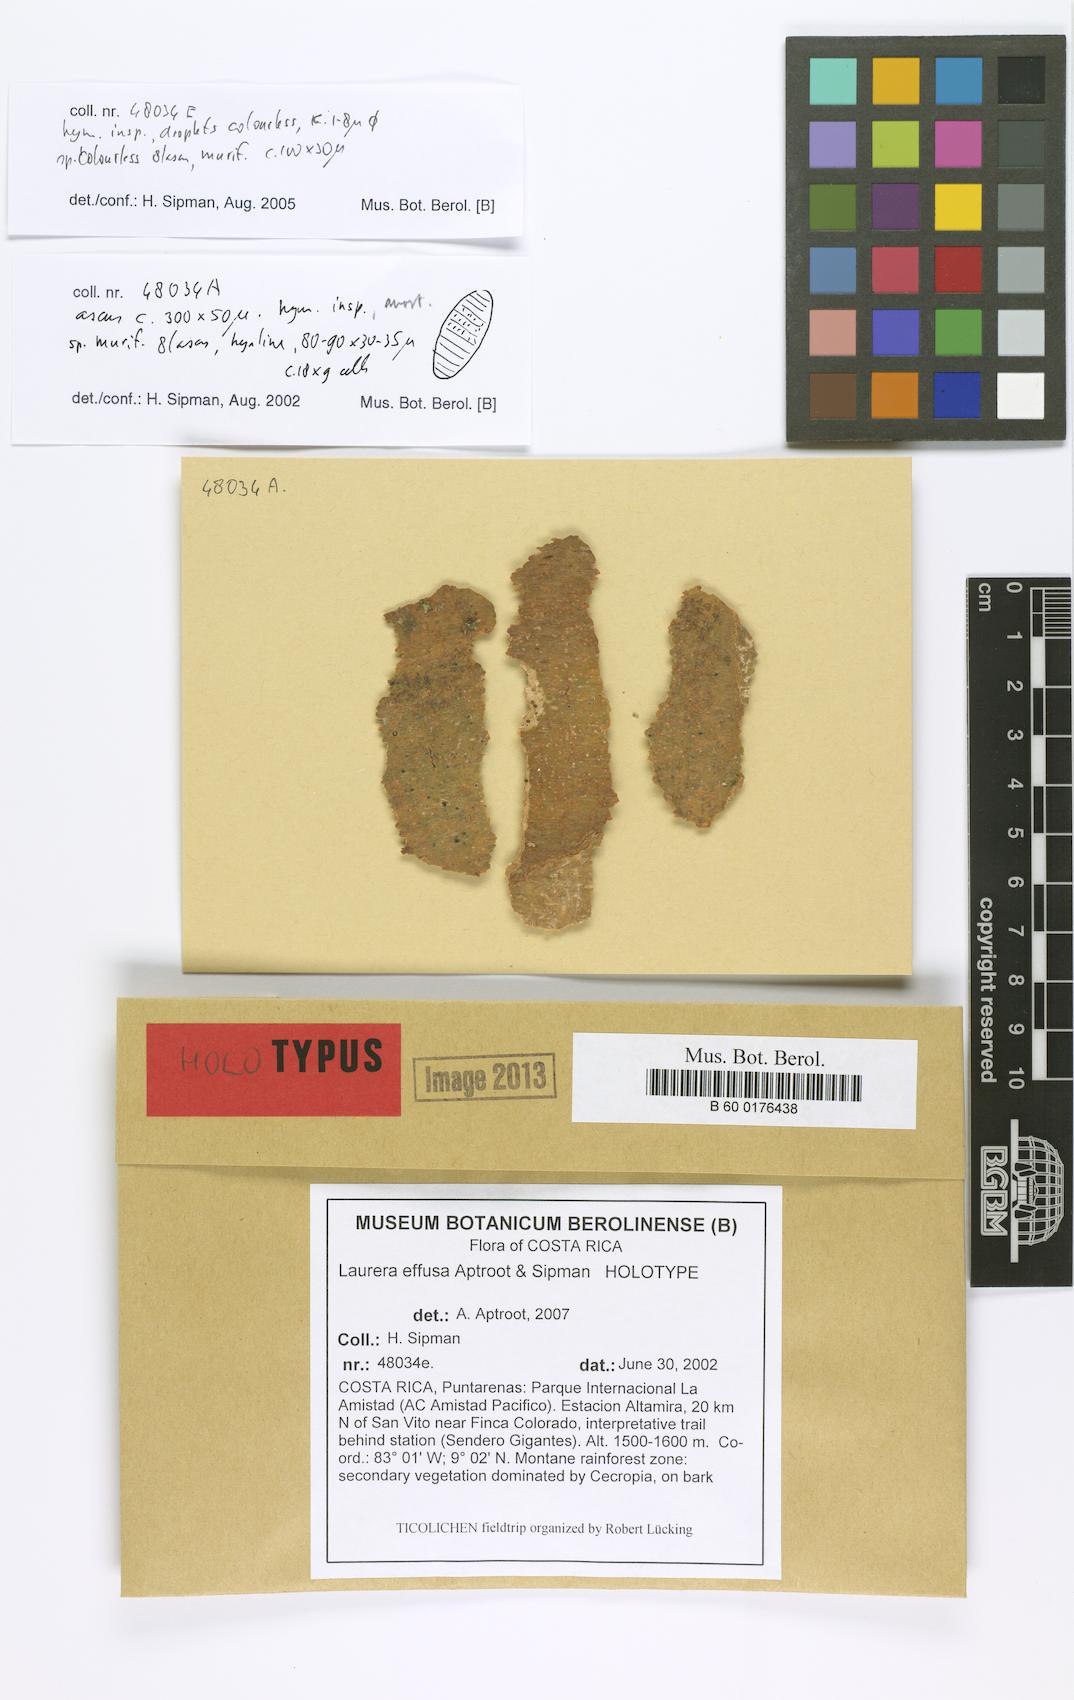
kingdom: Fungi
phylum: Ascomycota
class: Dothideomycetes
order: Trypetheliales
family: Trypetheliaceae
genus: Astrothelium
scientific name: Astrothelium effusum
